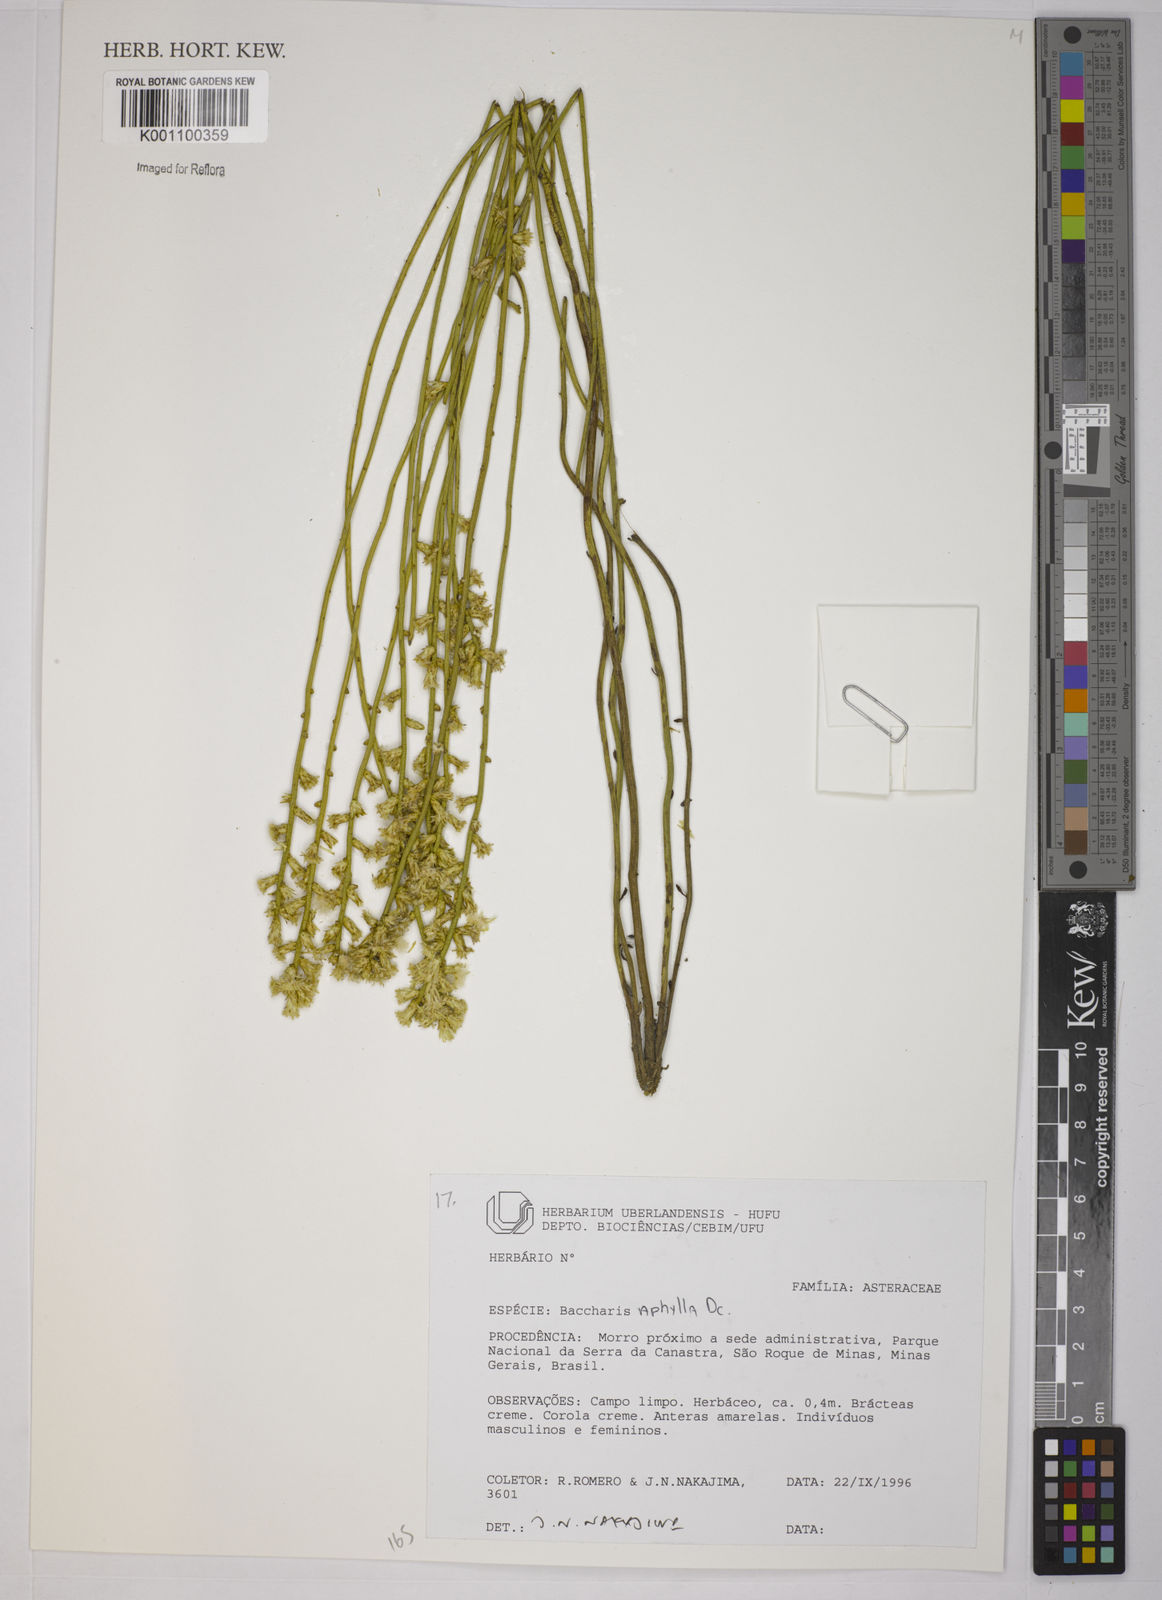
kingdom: Plantae
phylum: Tracheophyta
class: Magnoliopsida
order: Asterales
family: Asteraceae
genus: Baccharis
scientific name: Baccharis aphylla
